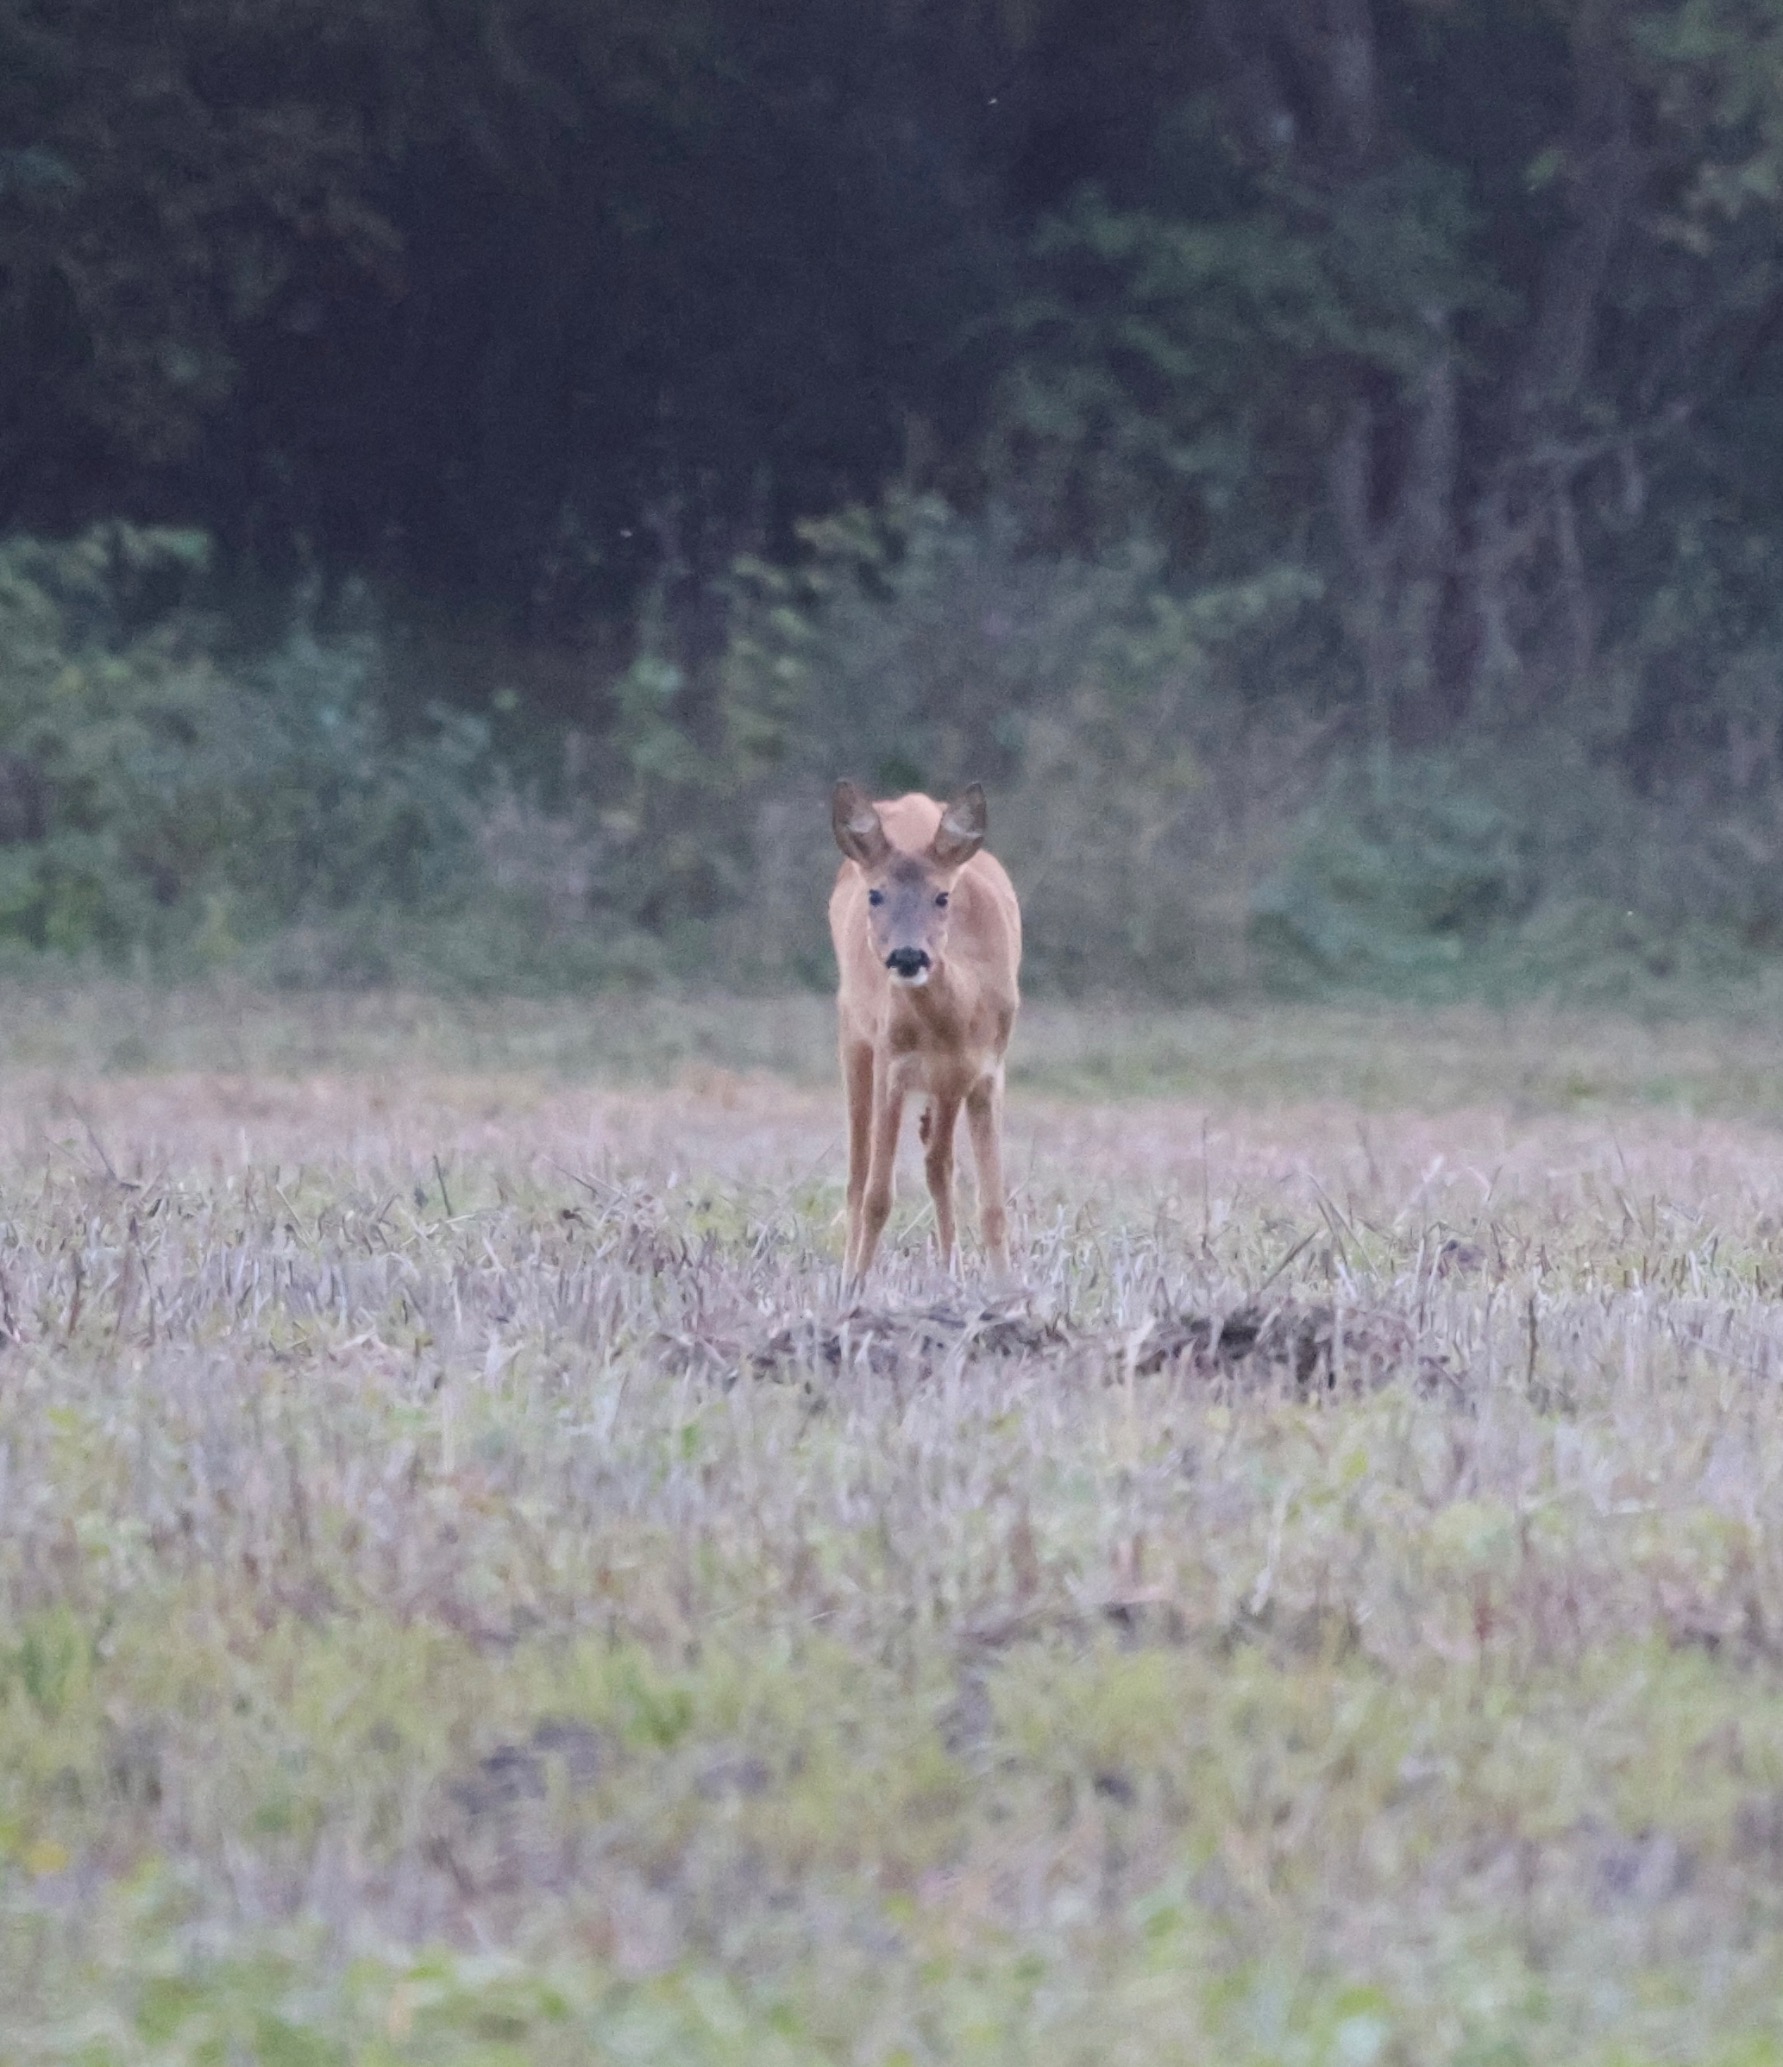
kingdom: Animalia
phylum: Chordata
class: Mammalia
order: Artiodactyla
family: Cervidae
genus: Capreolus
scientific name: Capreolus capreolus
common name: Rådyr
